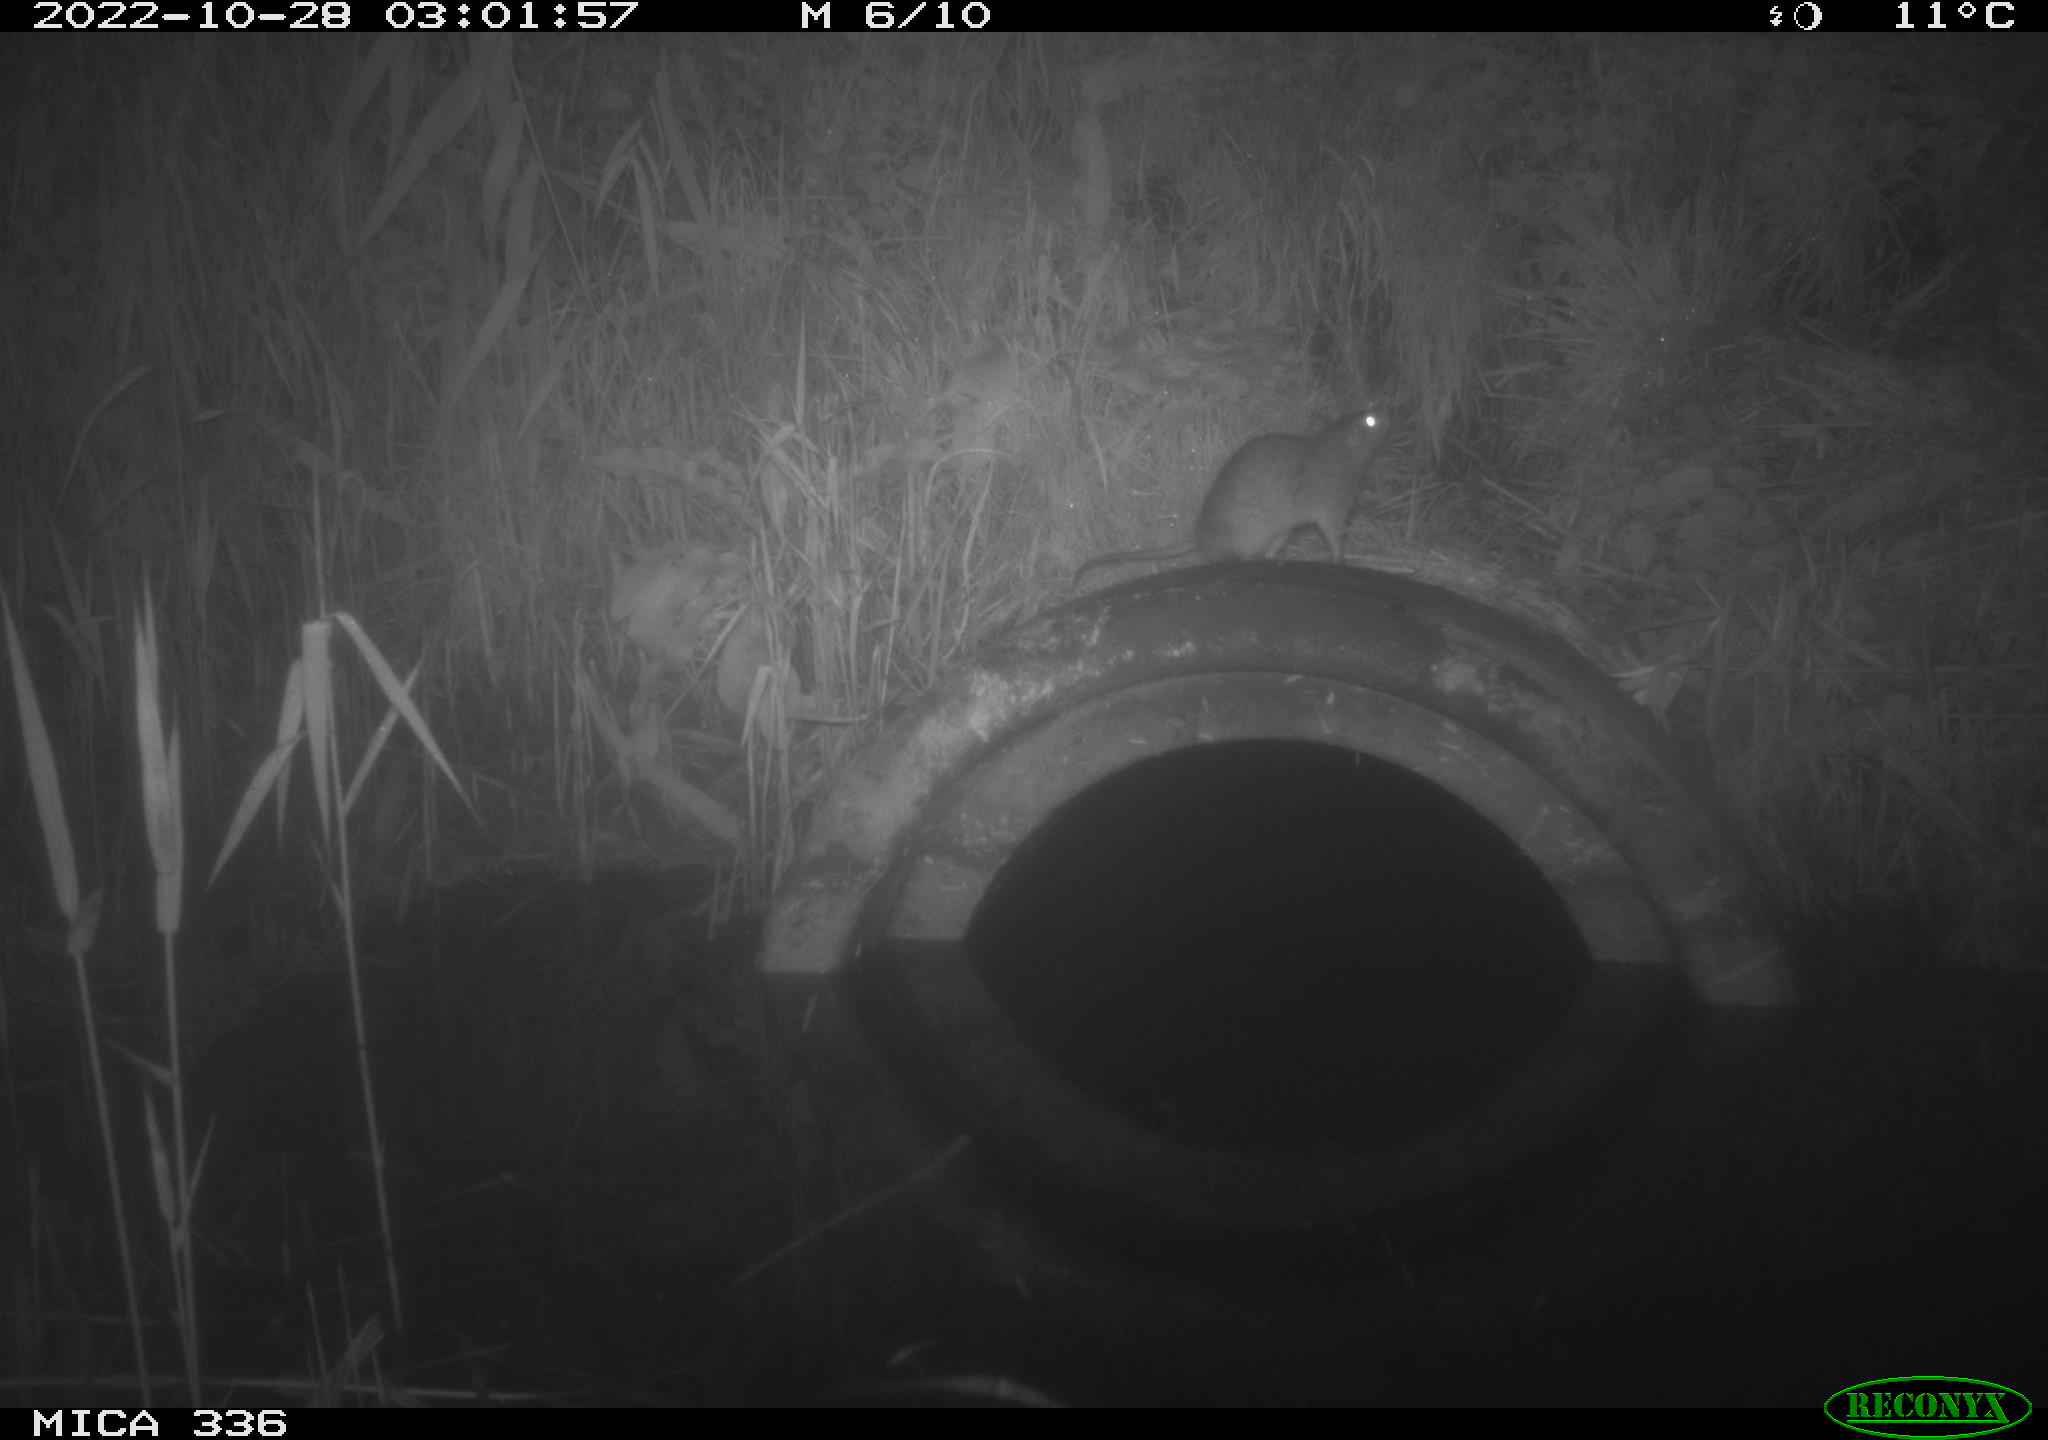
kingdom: Animalia
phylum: Chordata
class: Mammalia
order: Rodentia
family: Muridae
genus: Rattus
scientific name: Rattus norvegicus
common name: Brown rat
